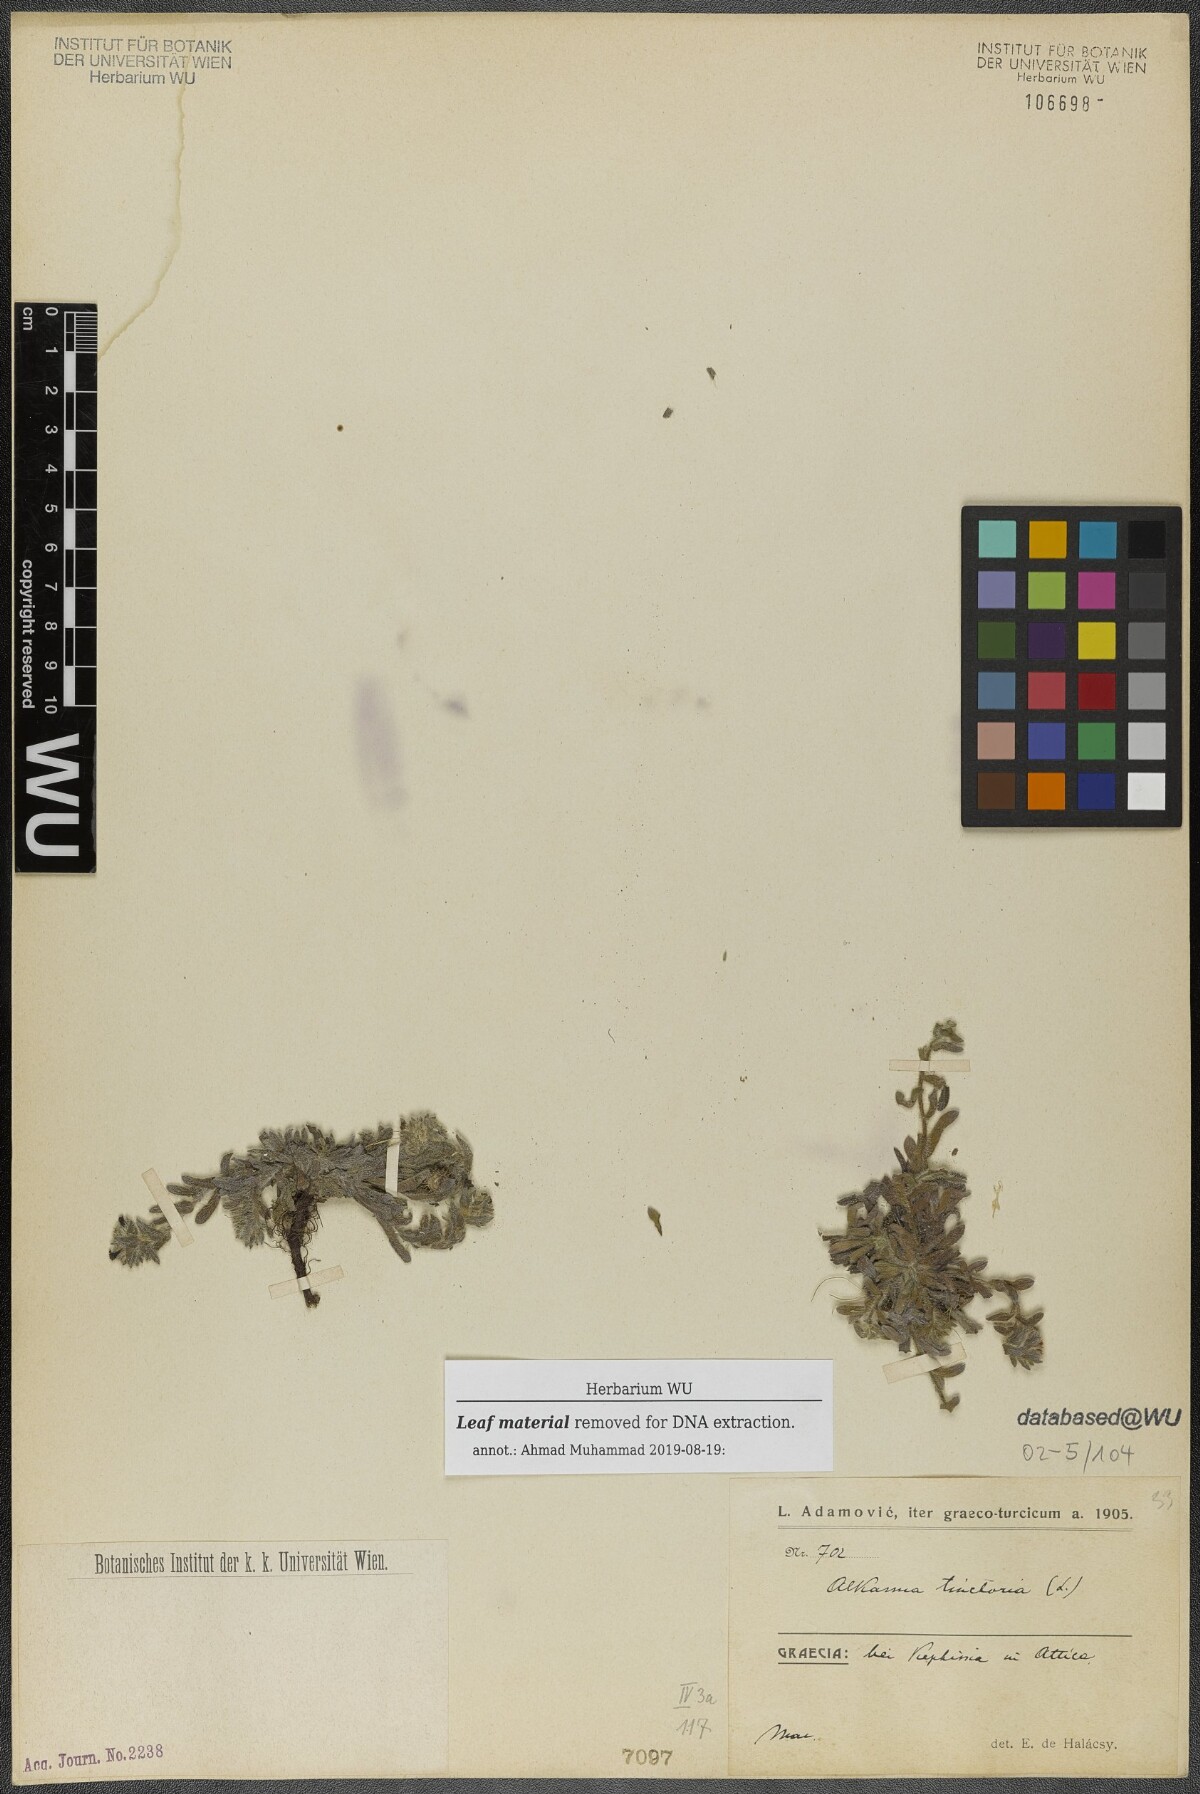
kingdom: Plantae
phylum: Tracheophyta
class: Magnoliopsida
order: Boraginales
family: Boraginaceae
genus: Alkanna
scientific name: Alkanna tinctoria
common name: Dyer's-alkanet
